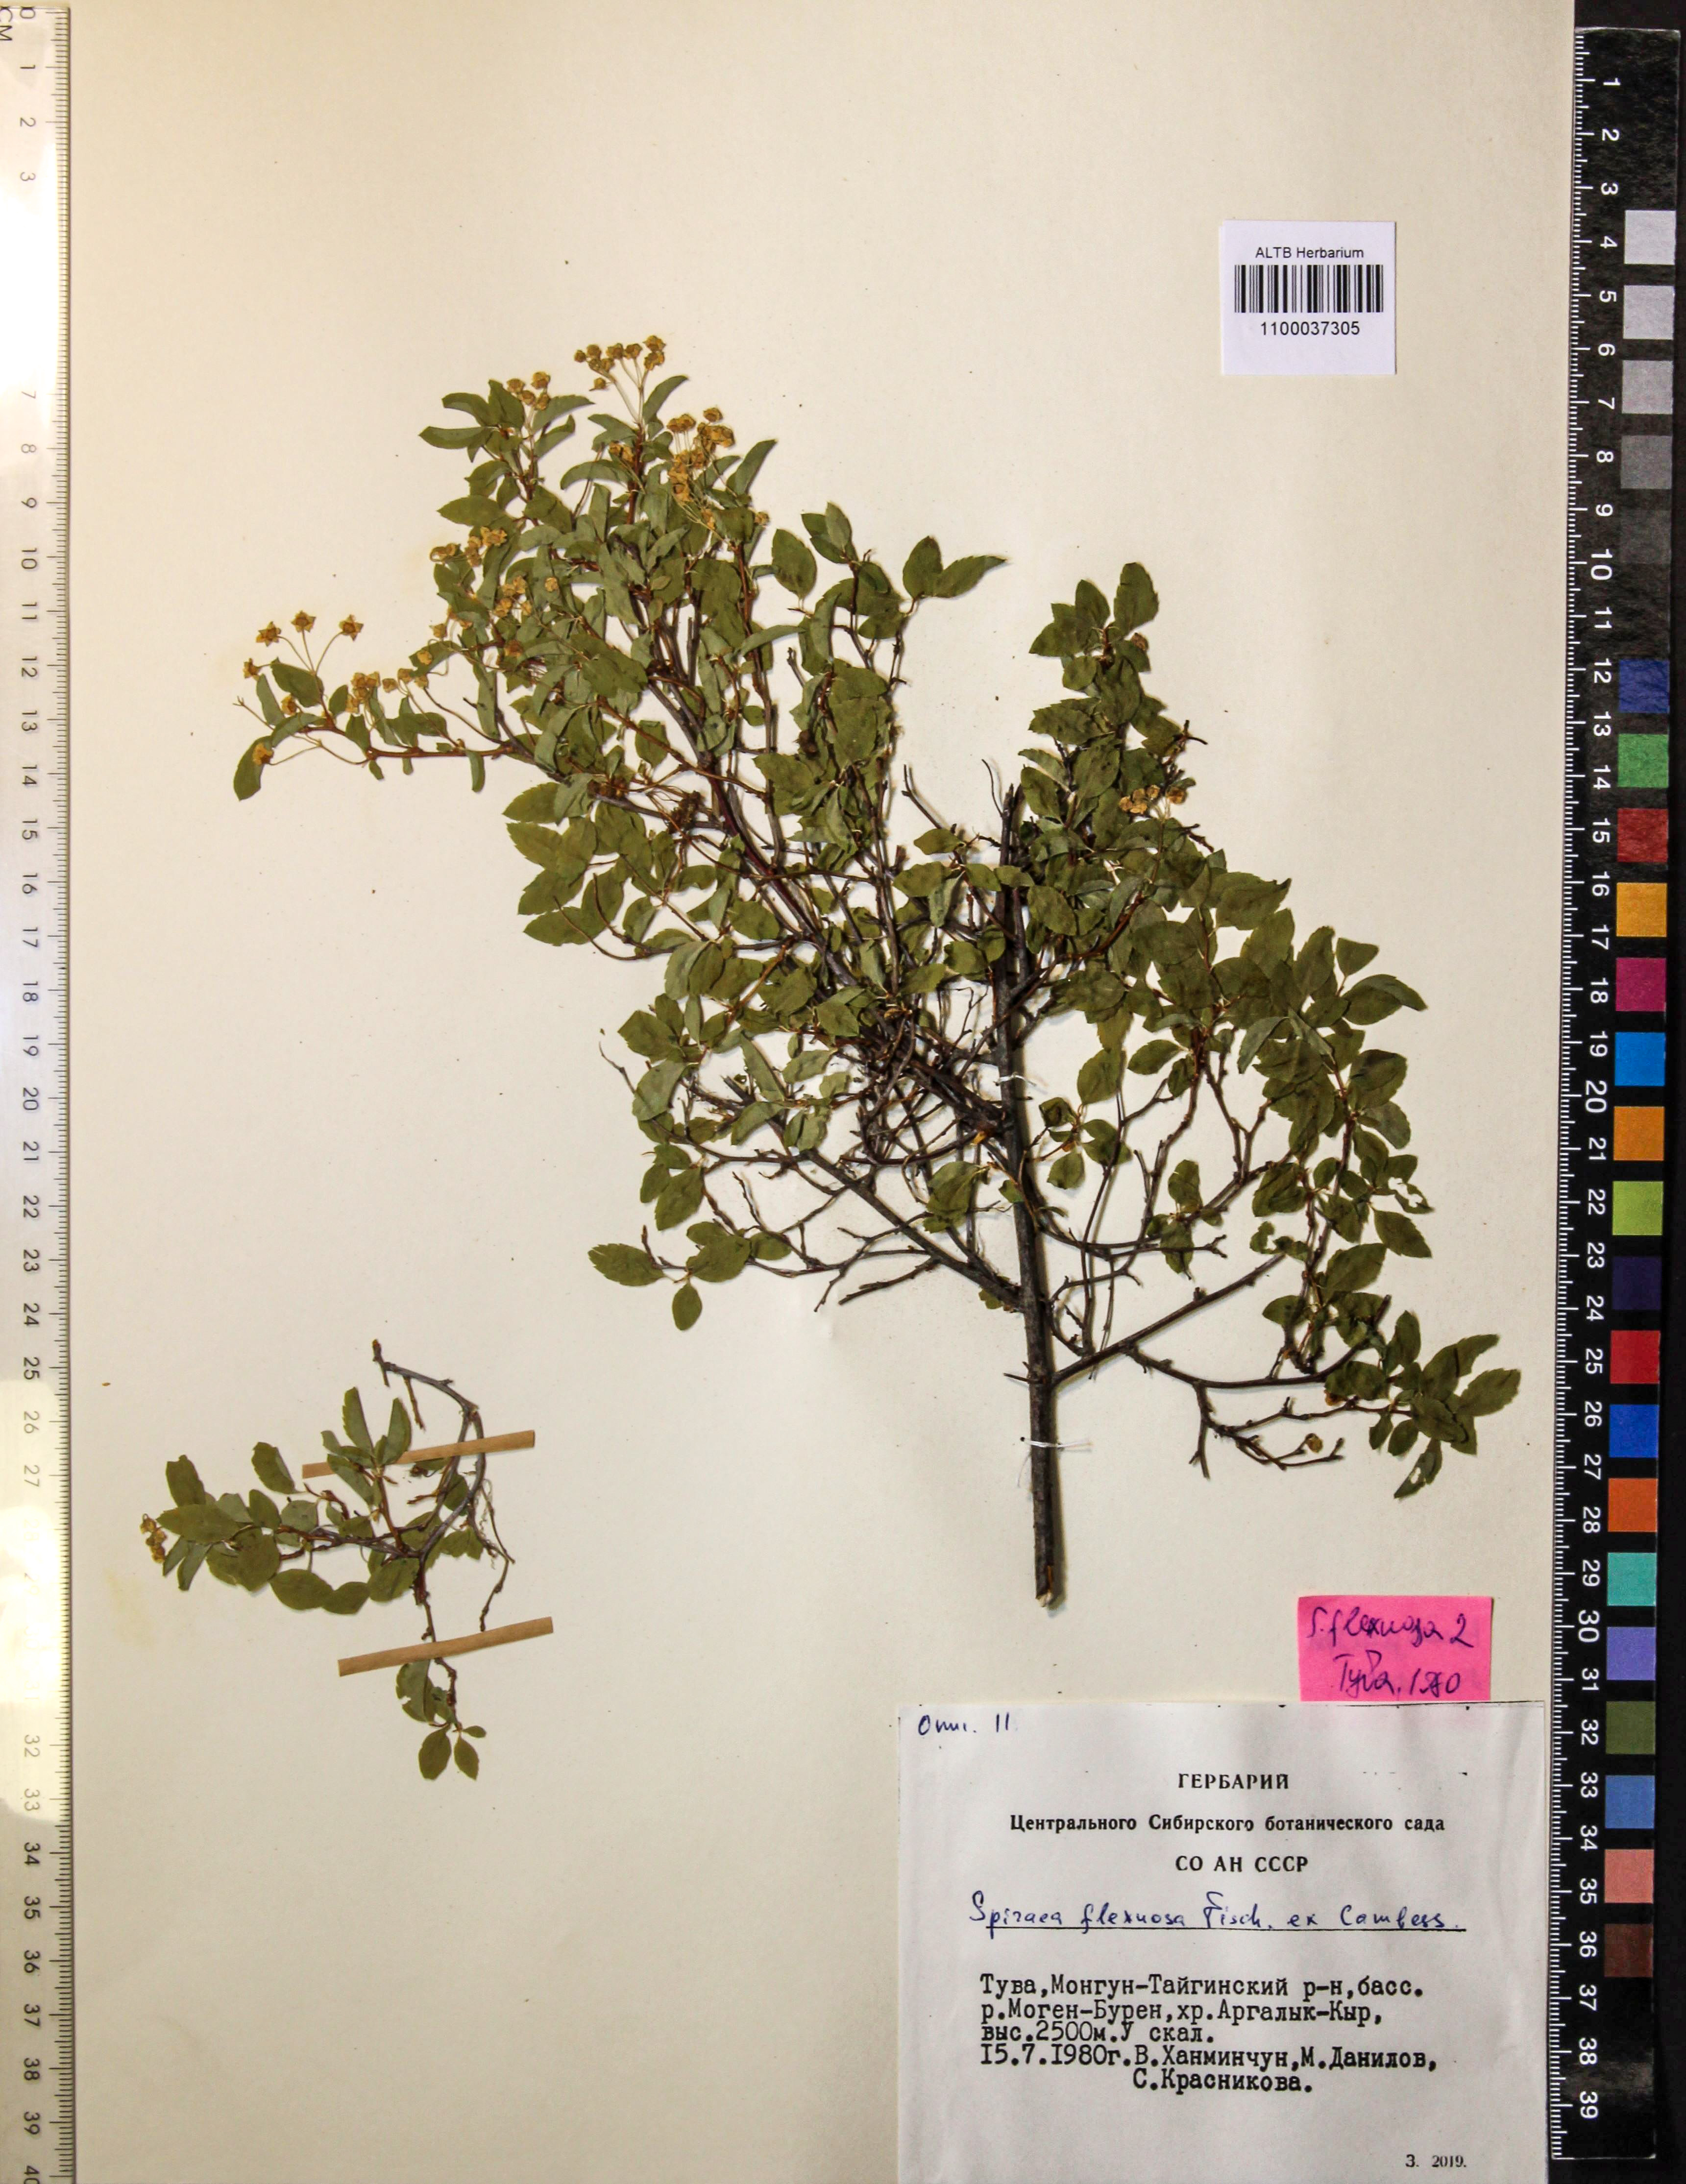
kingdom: Plantae
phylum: Tracheophyta
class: Magnoliopsida
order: Rosales
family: Rosaceae
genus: Spiraea
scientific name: Spiraea flexuosa
